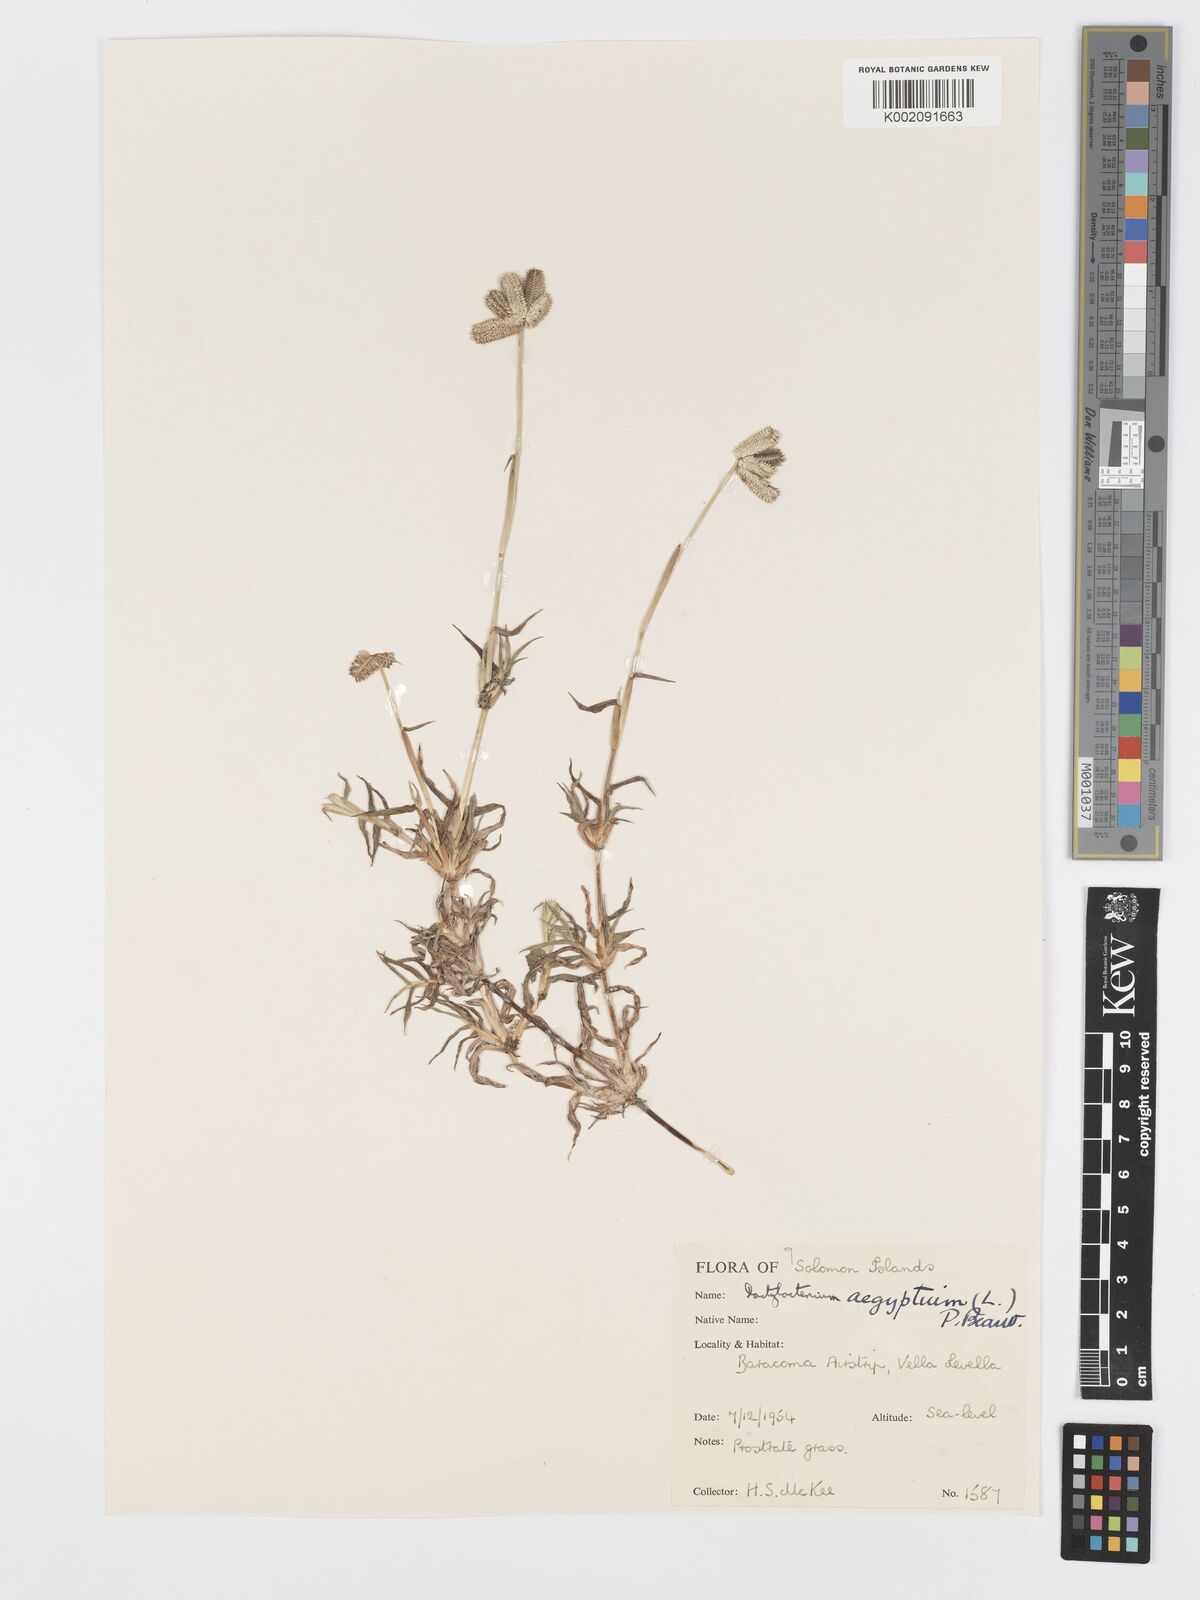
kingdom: Plantae
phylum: Tracheophyta
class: Liliopsida
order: Poales
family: Poaceae
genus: Dactyloctenium
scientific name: Dactyloctenium aegyptium
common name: Egyptian grass
